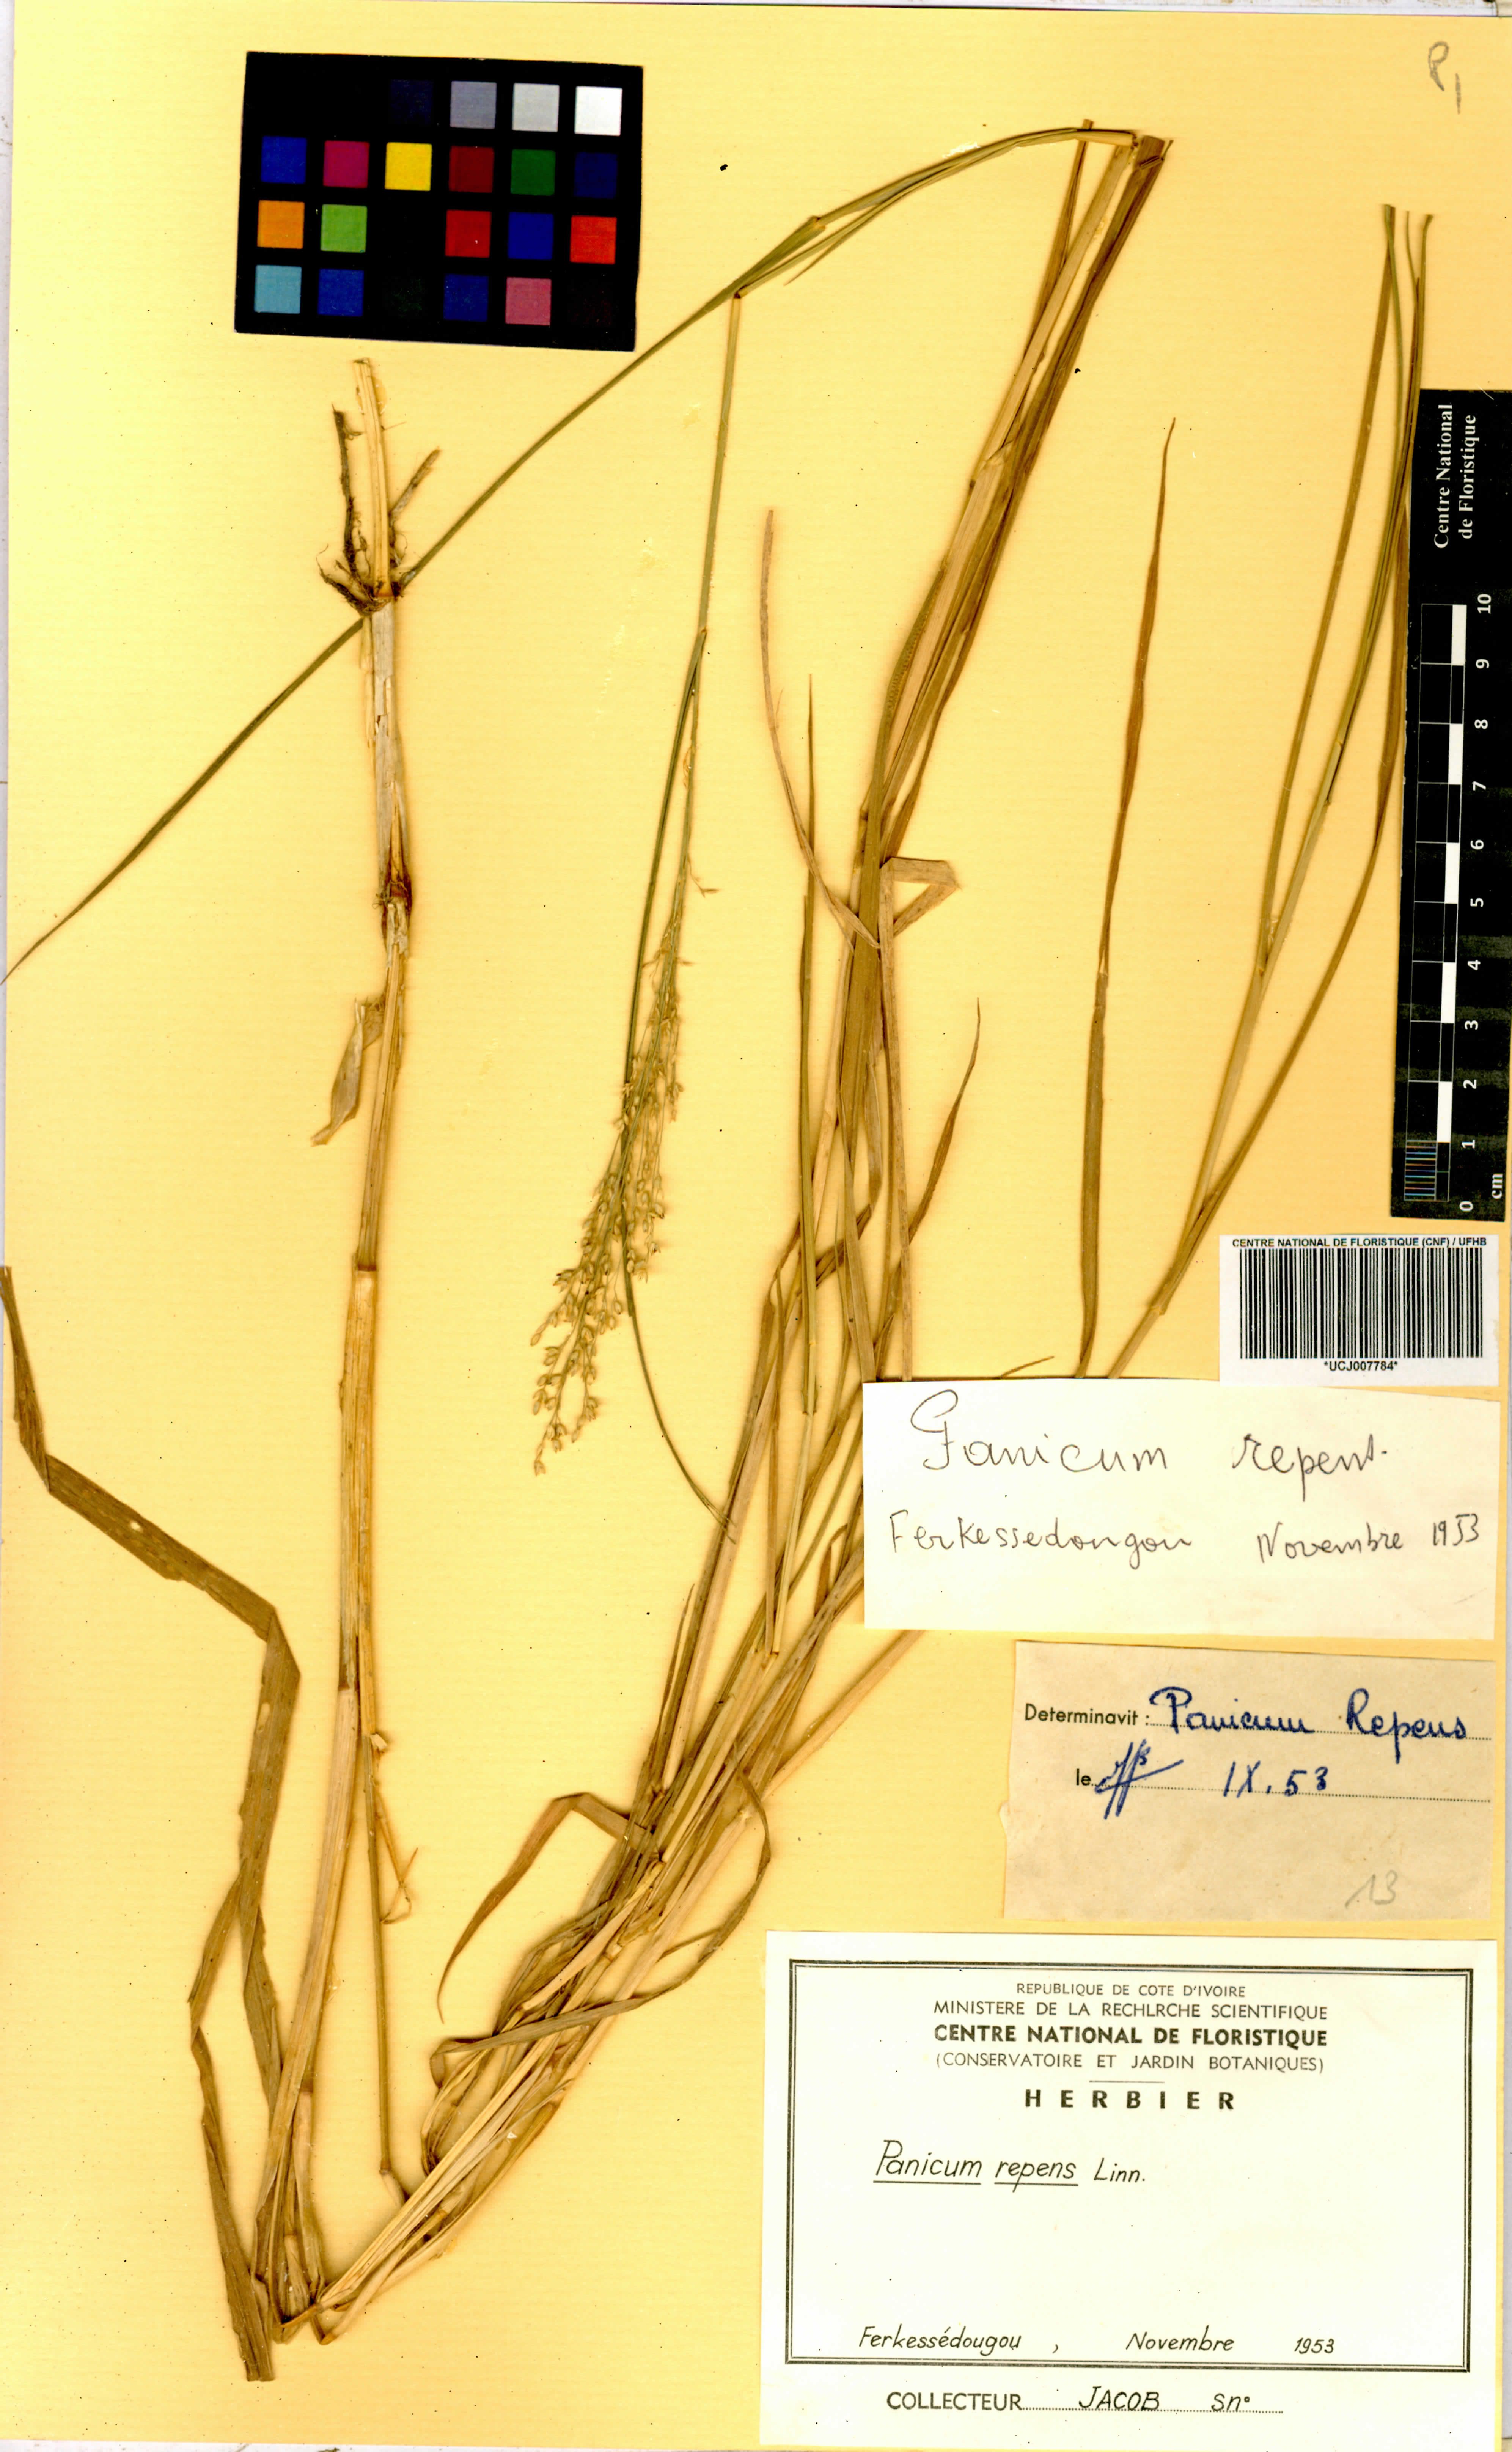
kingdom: Plantae
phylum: Tracheophyta
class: Liliopsida
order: Poales
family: Poaceae
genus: Panicum
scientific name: Panicum repens
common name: Torpedo grass
